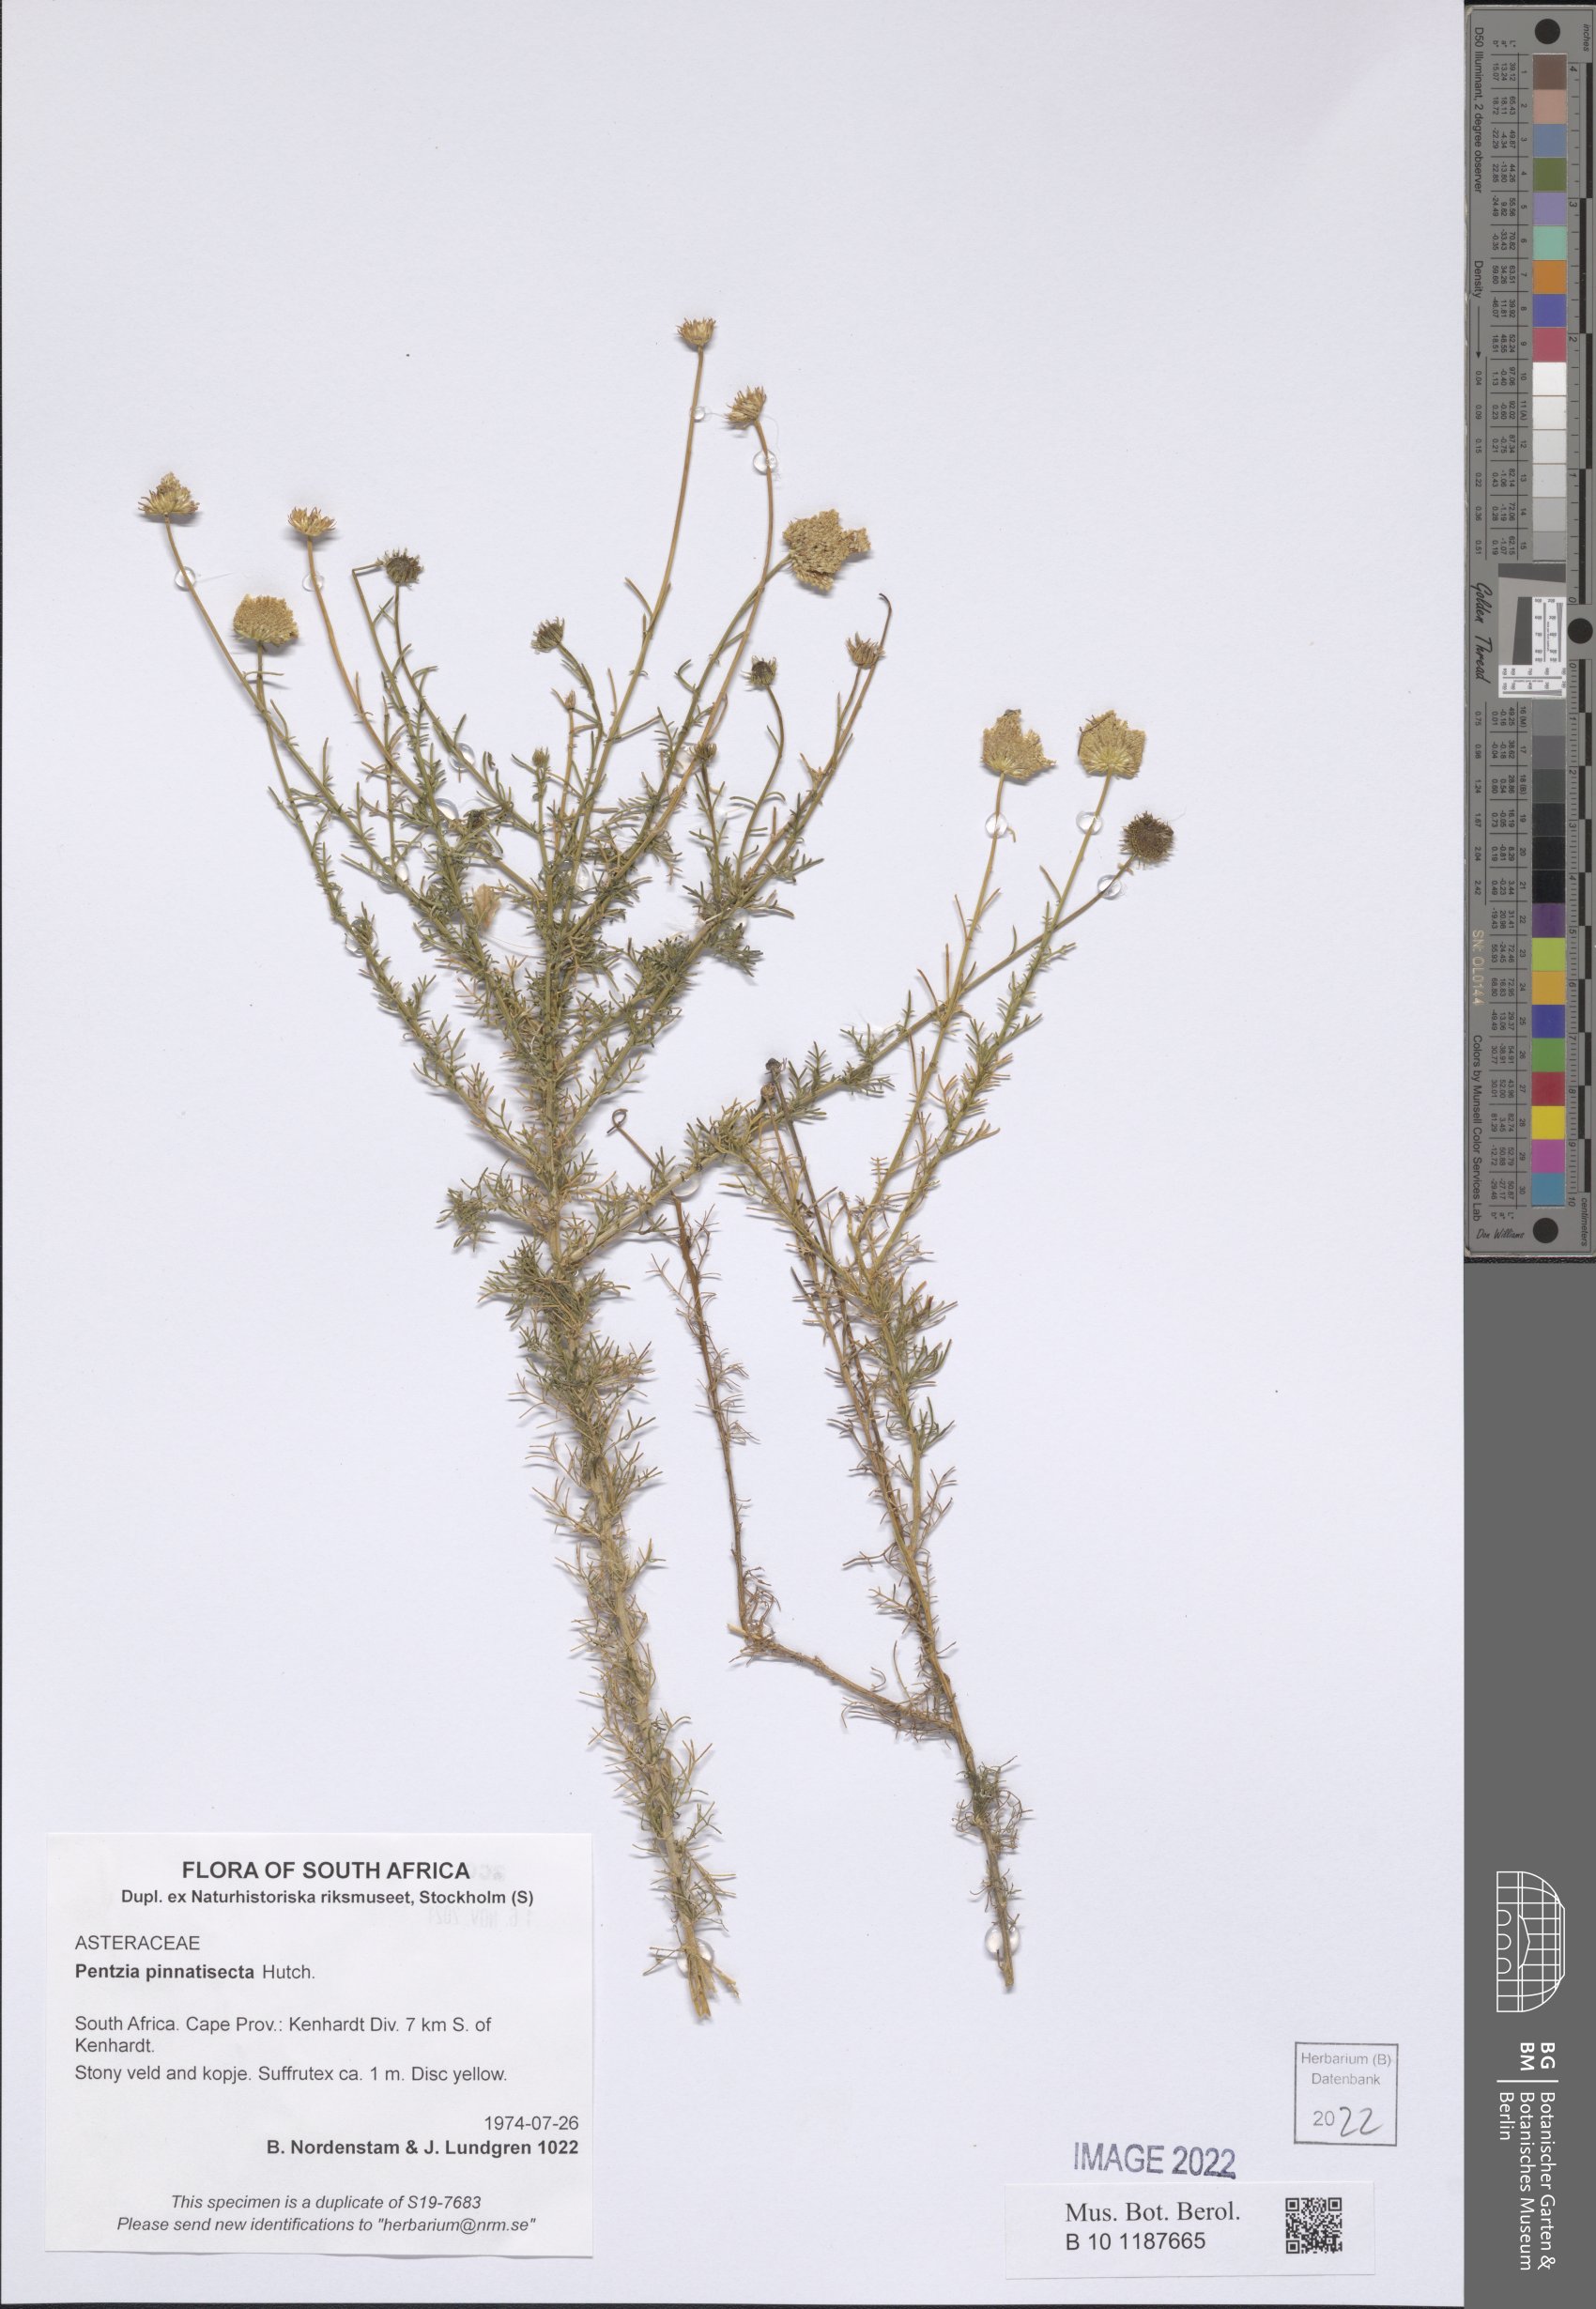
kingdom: Plantae
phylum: Tracheophyta
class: Magnoliopsida
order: Asterales
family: Asteraceae
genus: Pentzia
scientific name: Pentzia pinnatisecta
